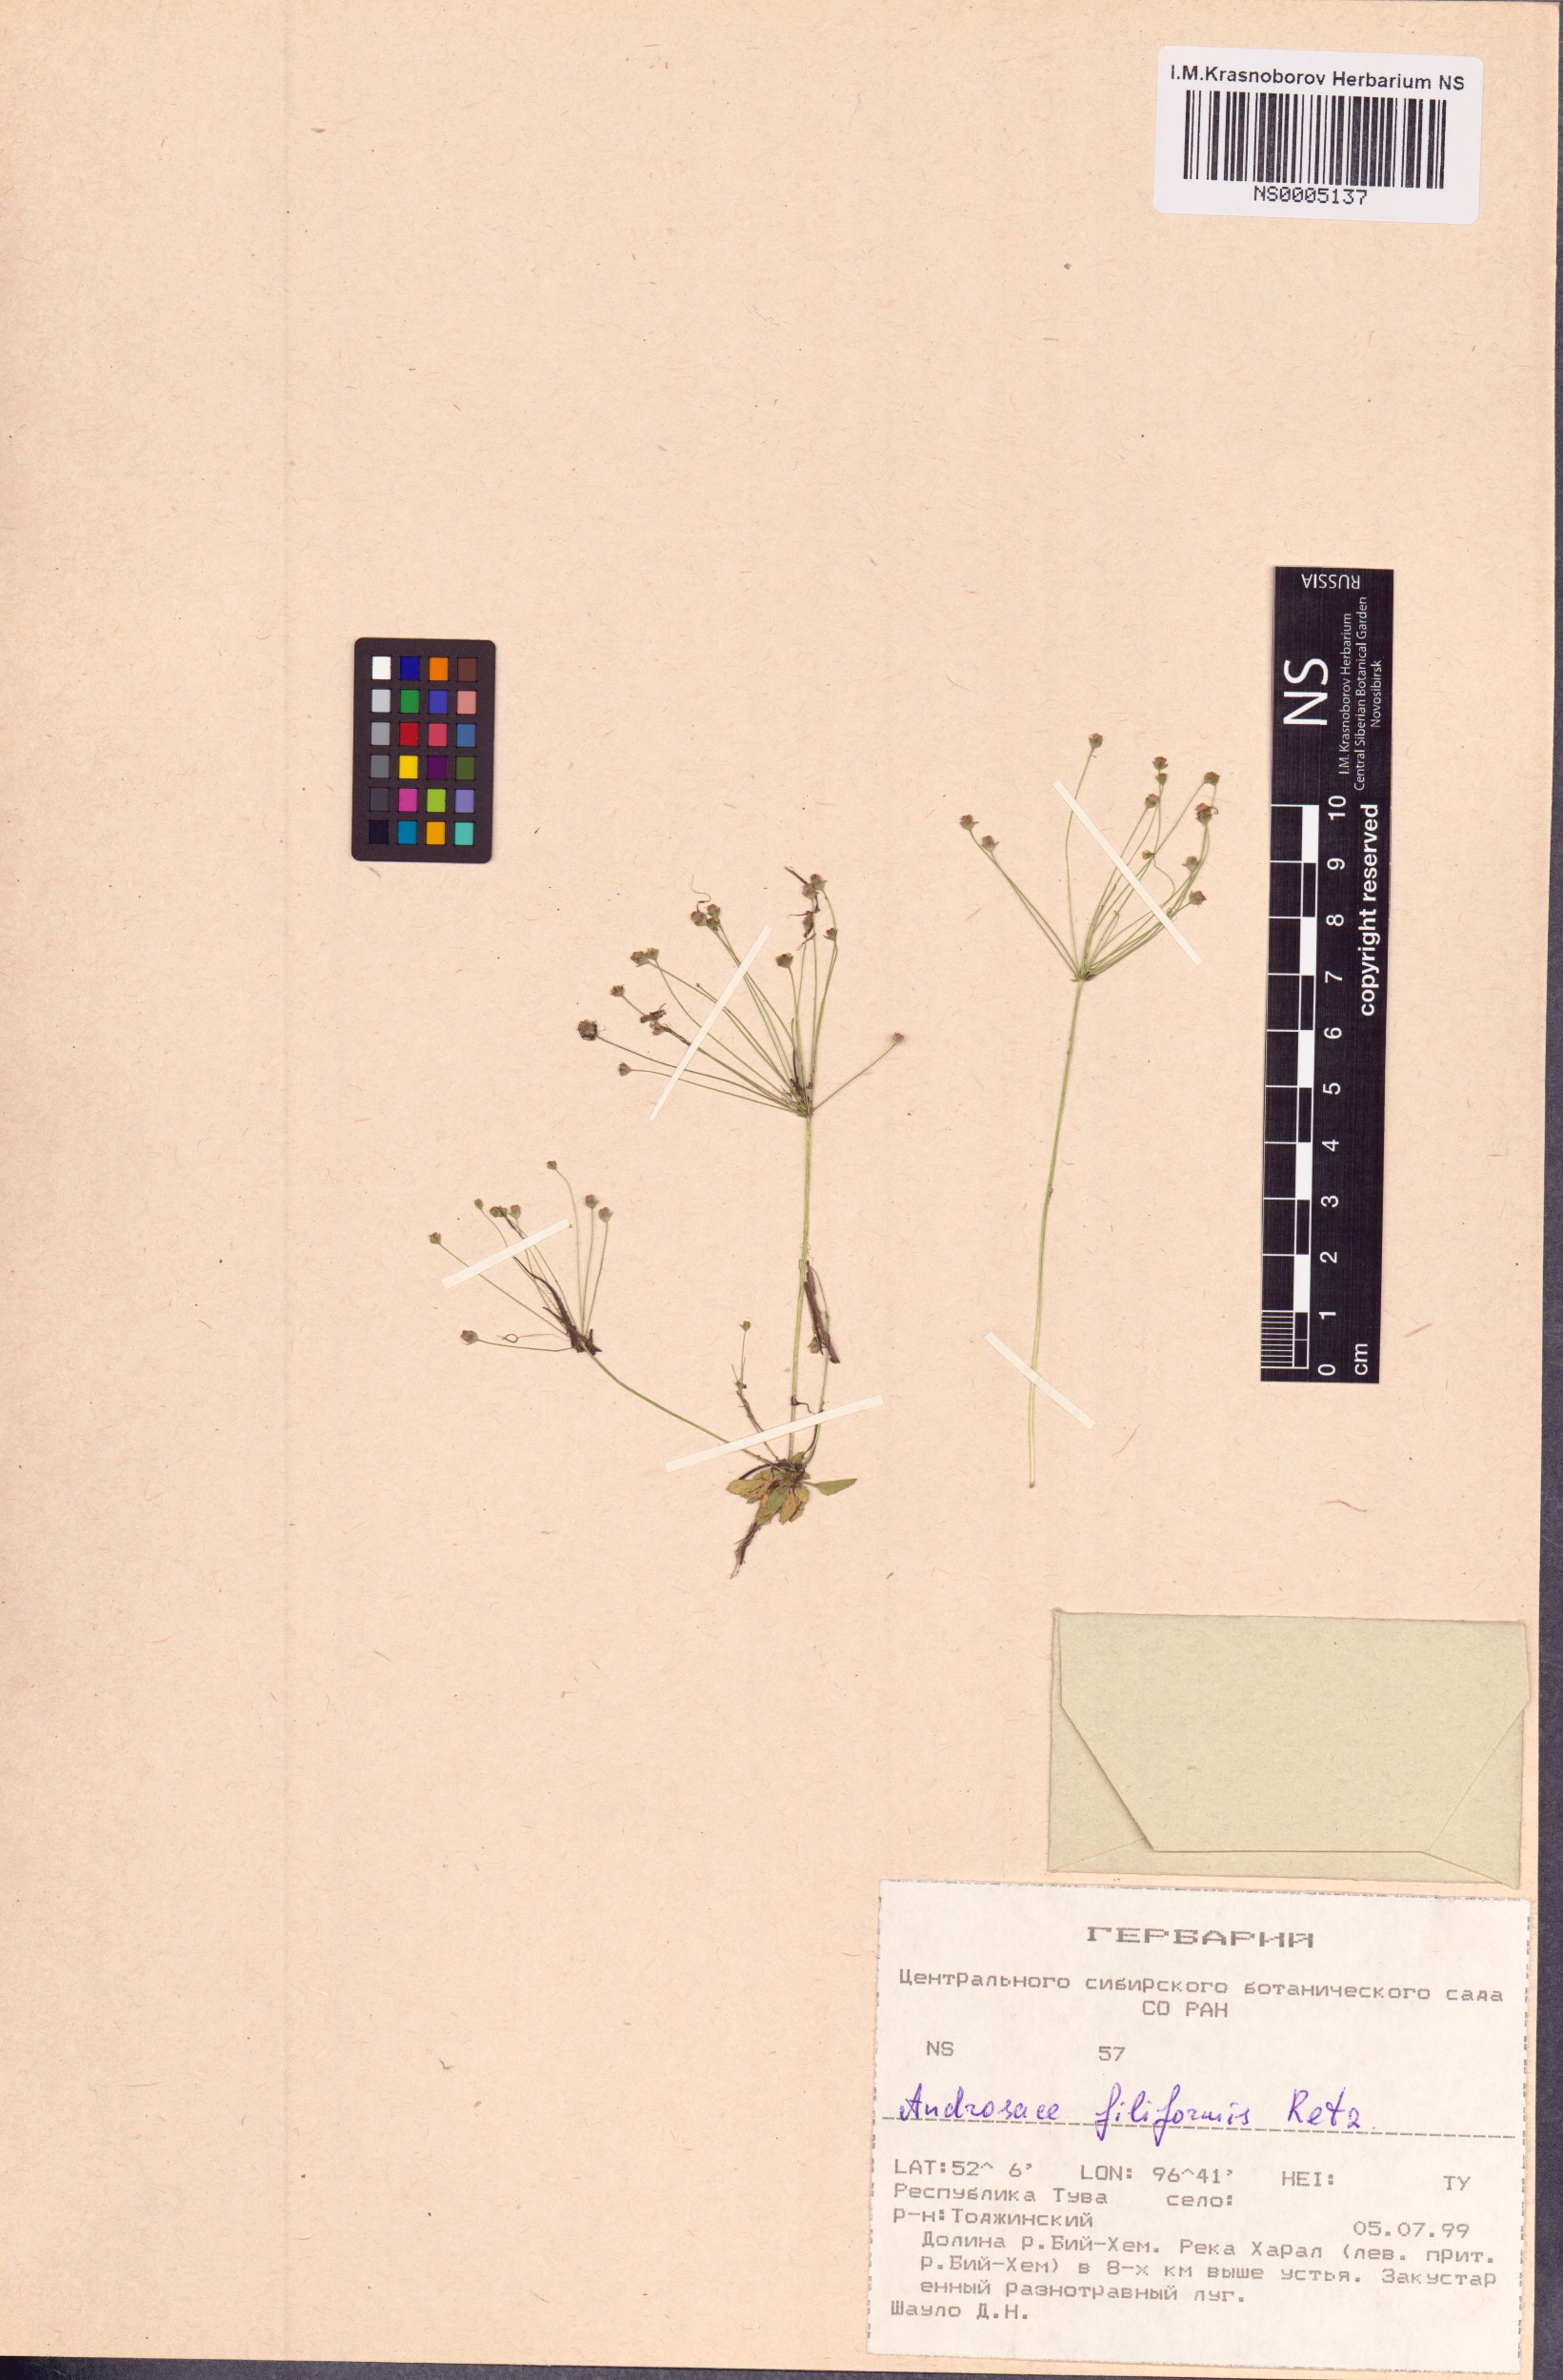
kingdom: Plantae
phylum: Tracheophyta
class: Magnoliopsida
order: Ericales
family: Primulaceae
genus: Androsace
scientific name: Androsace filiformis
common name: Filiform rock jasmine
